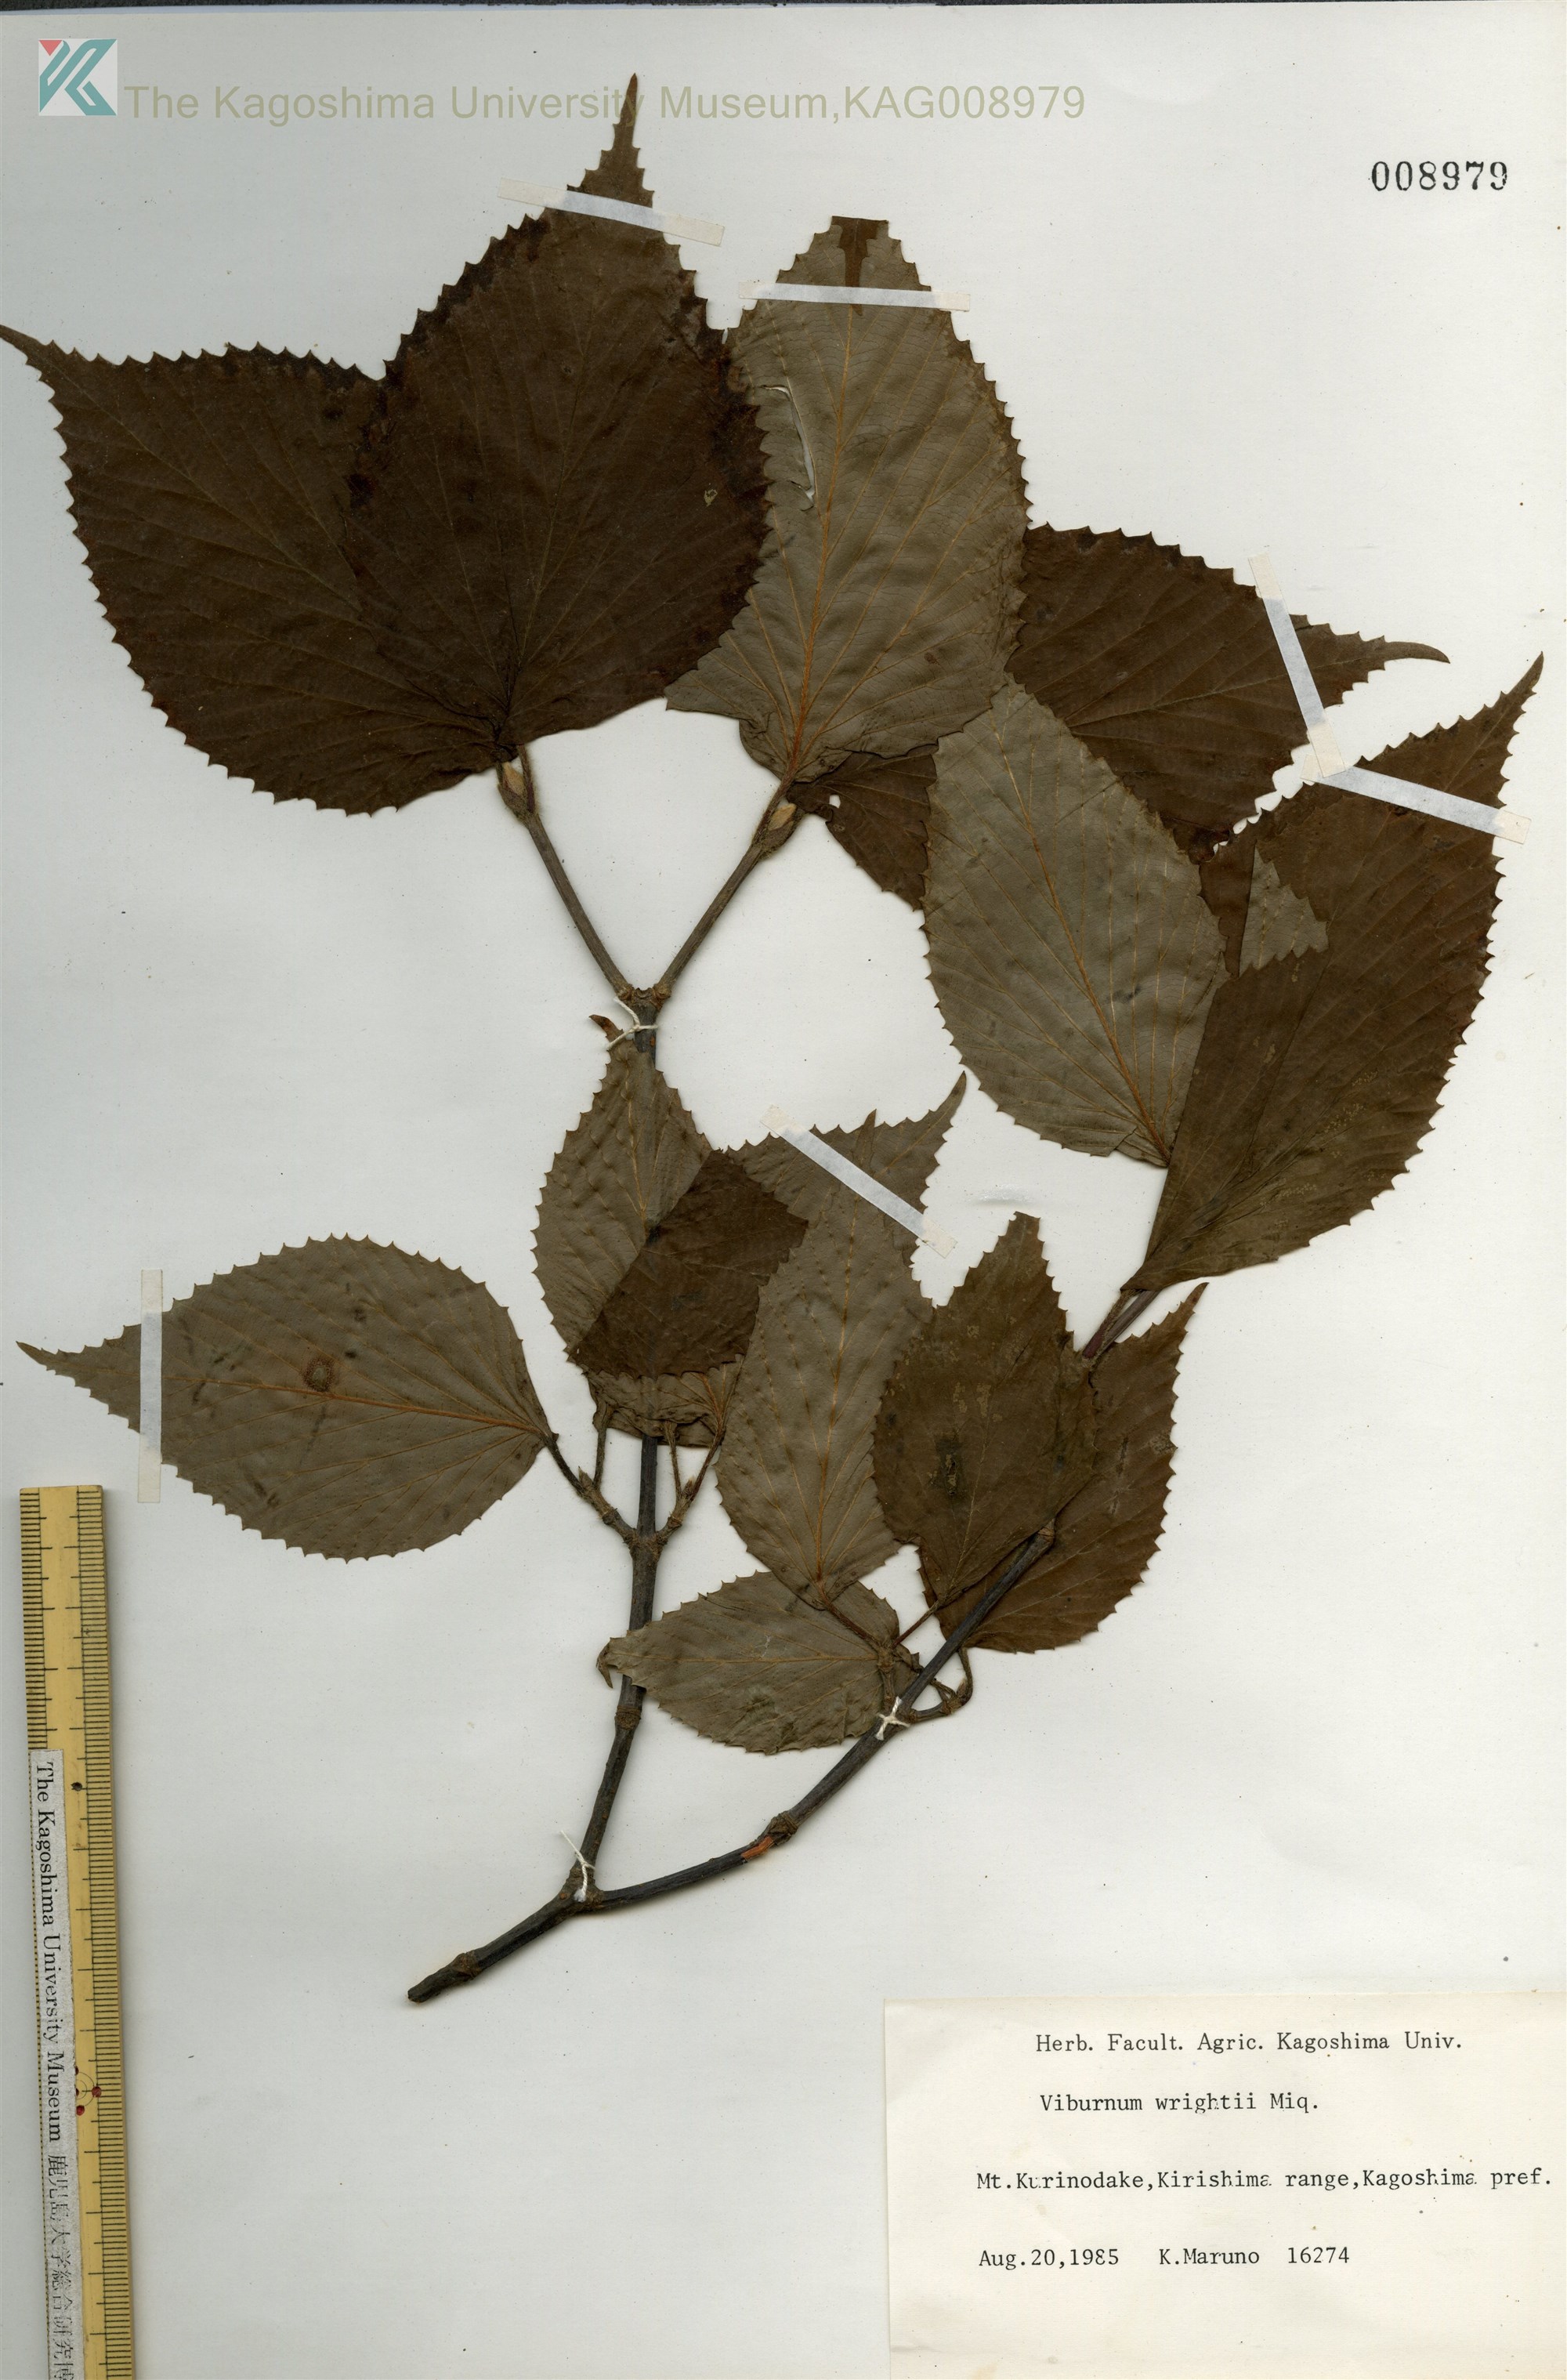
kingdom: Plantae
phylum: Tracheophyta
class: Magnoliopsida
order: Dipsacales
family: Viburnaceae
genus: Viburnum
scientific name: Viburnum wrightii
